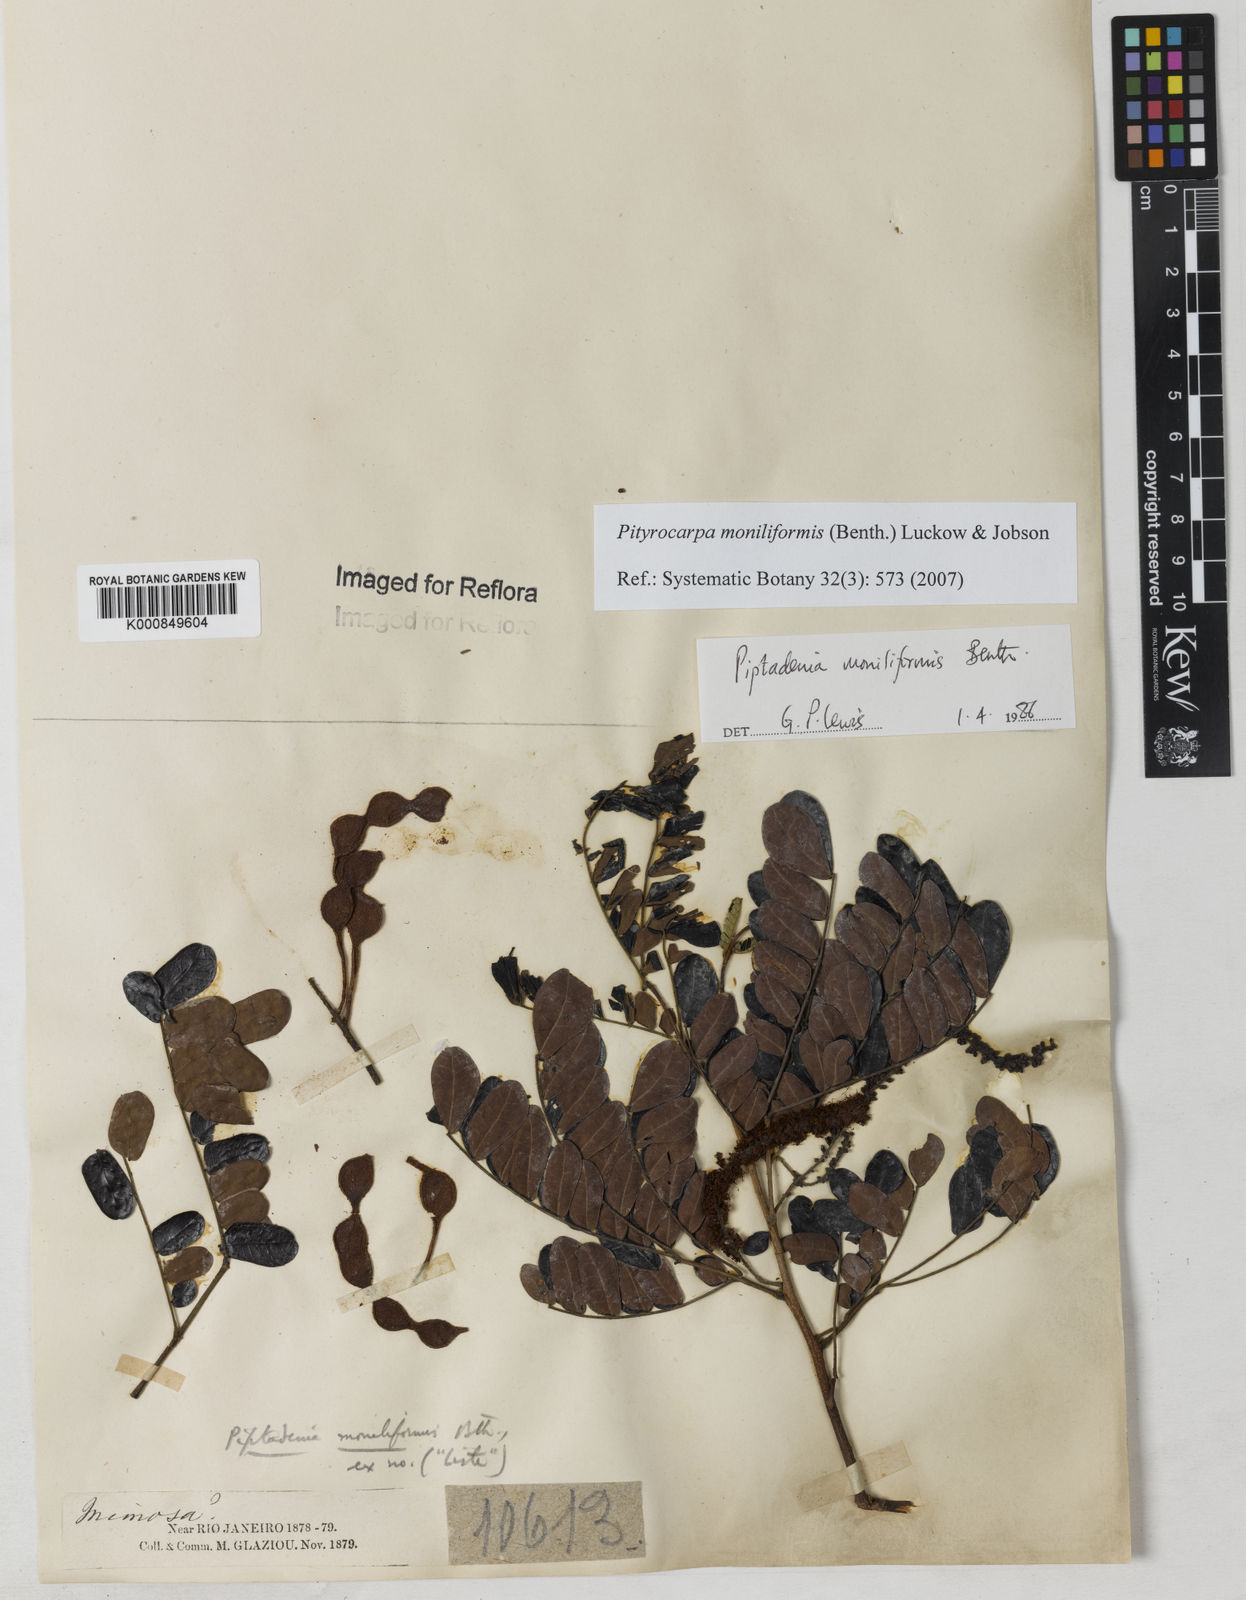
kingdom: Plantae
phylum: Tracheophyta
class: Magnoliopsida
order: Fabales
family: Fabaceae
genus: Pityrocarpa
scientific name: Pityrocarpa moniliformis
